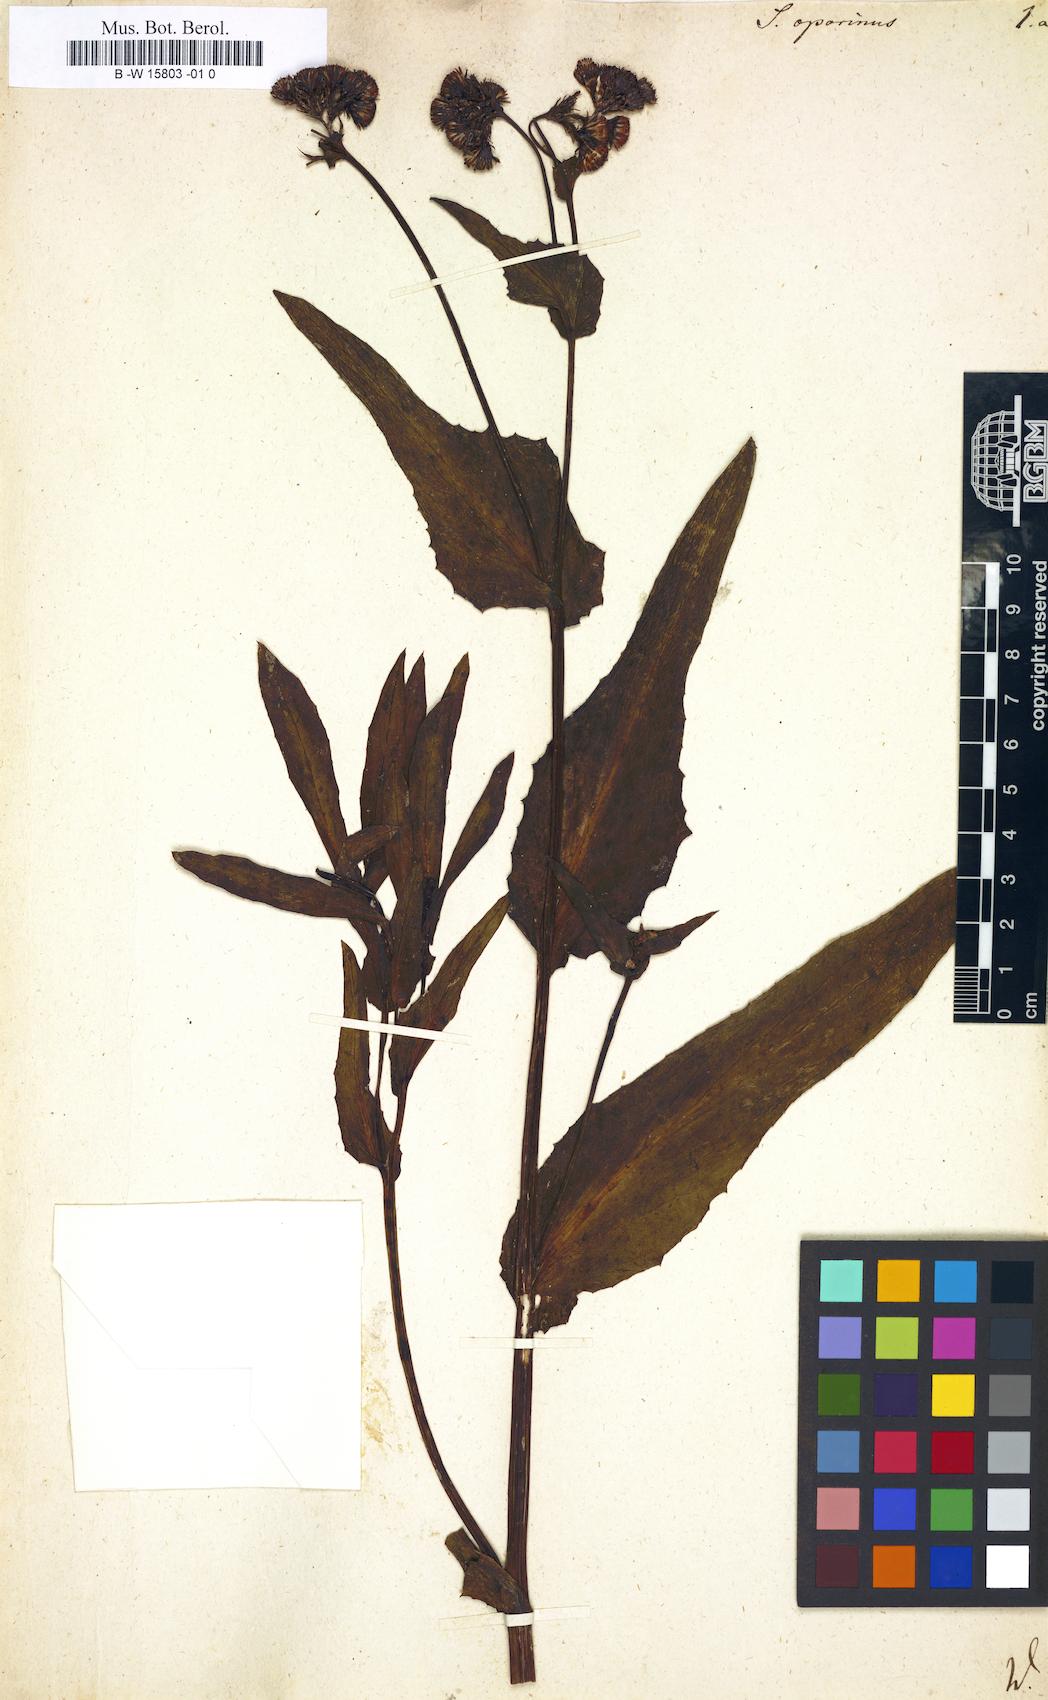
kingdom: Plantae
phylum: Tracheophyta
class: Magnoliopsida
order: Asterales
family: Asteraceae
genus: Senecio
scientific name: Senecio lanceus
